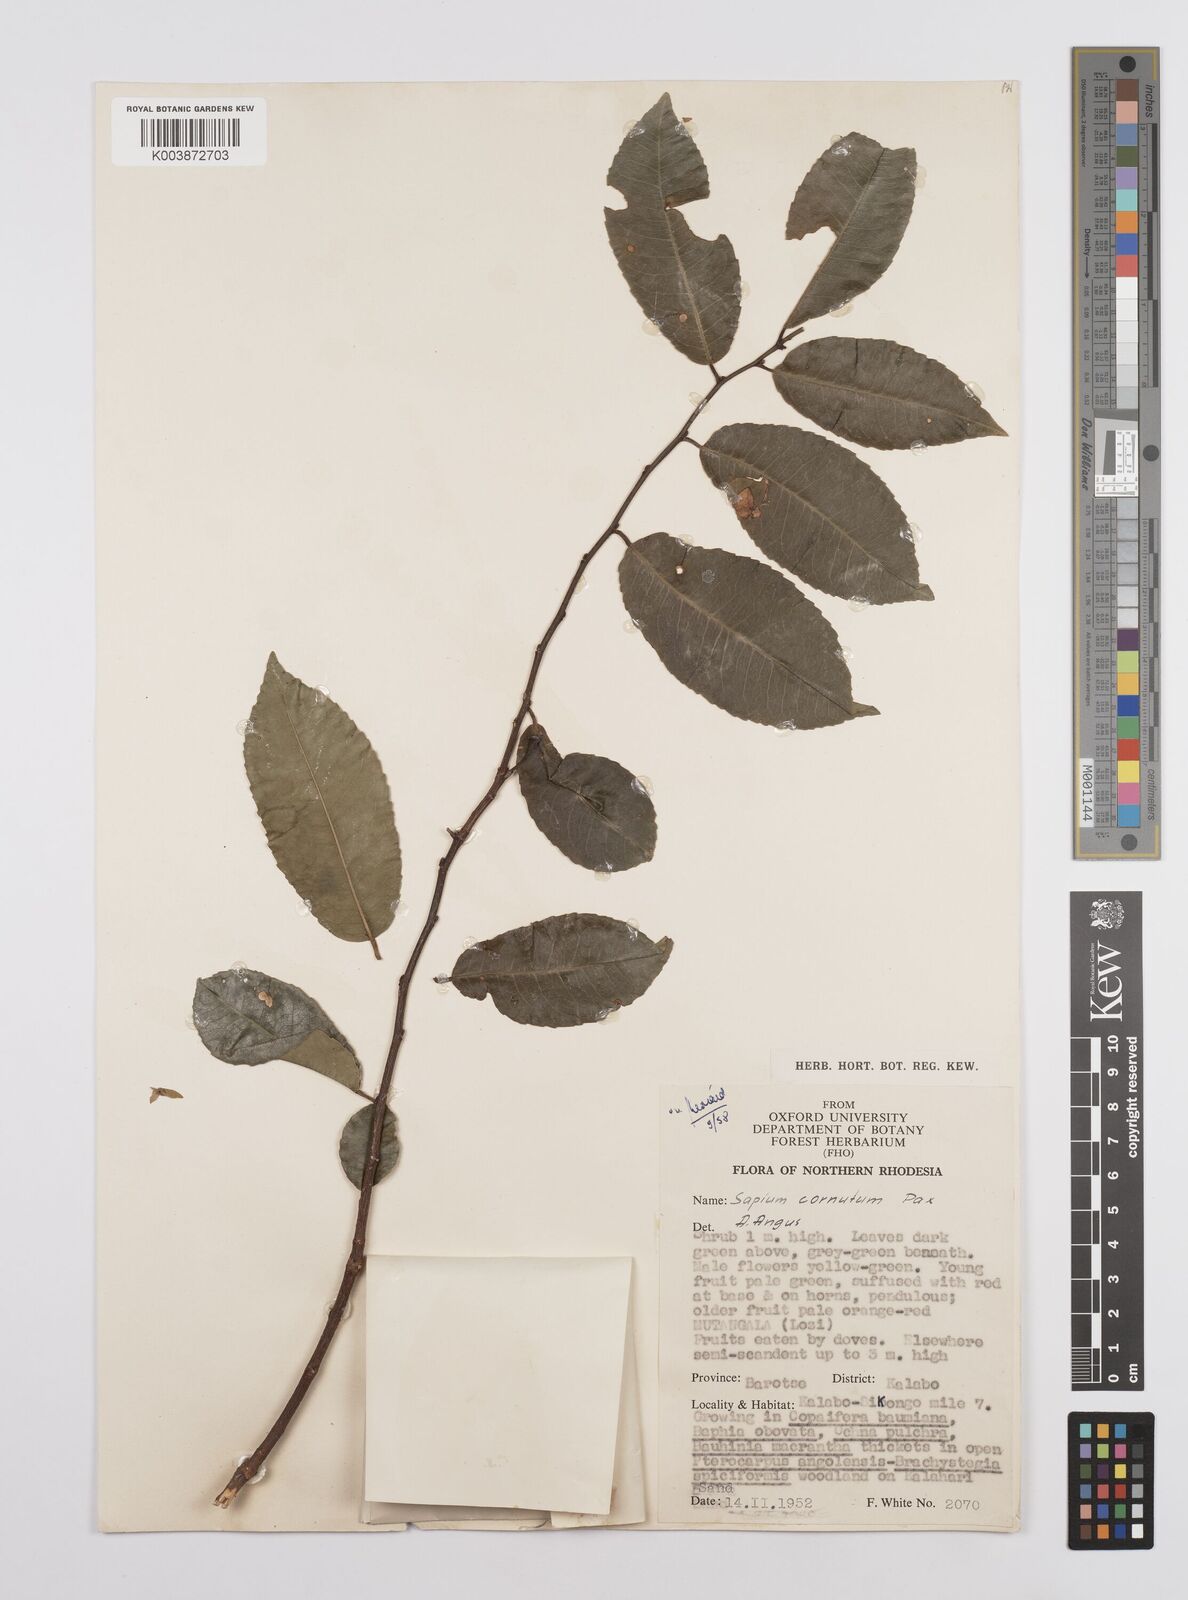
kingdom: Plantae
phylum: Tracheophyta
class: Magnoliopsida
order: Malpighiales
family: Euphorbiaceae
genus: Sclerocroton
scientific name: Sclerocroton cornutus
